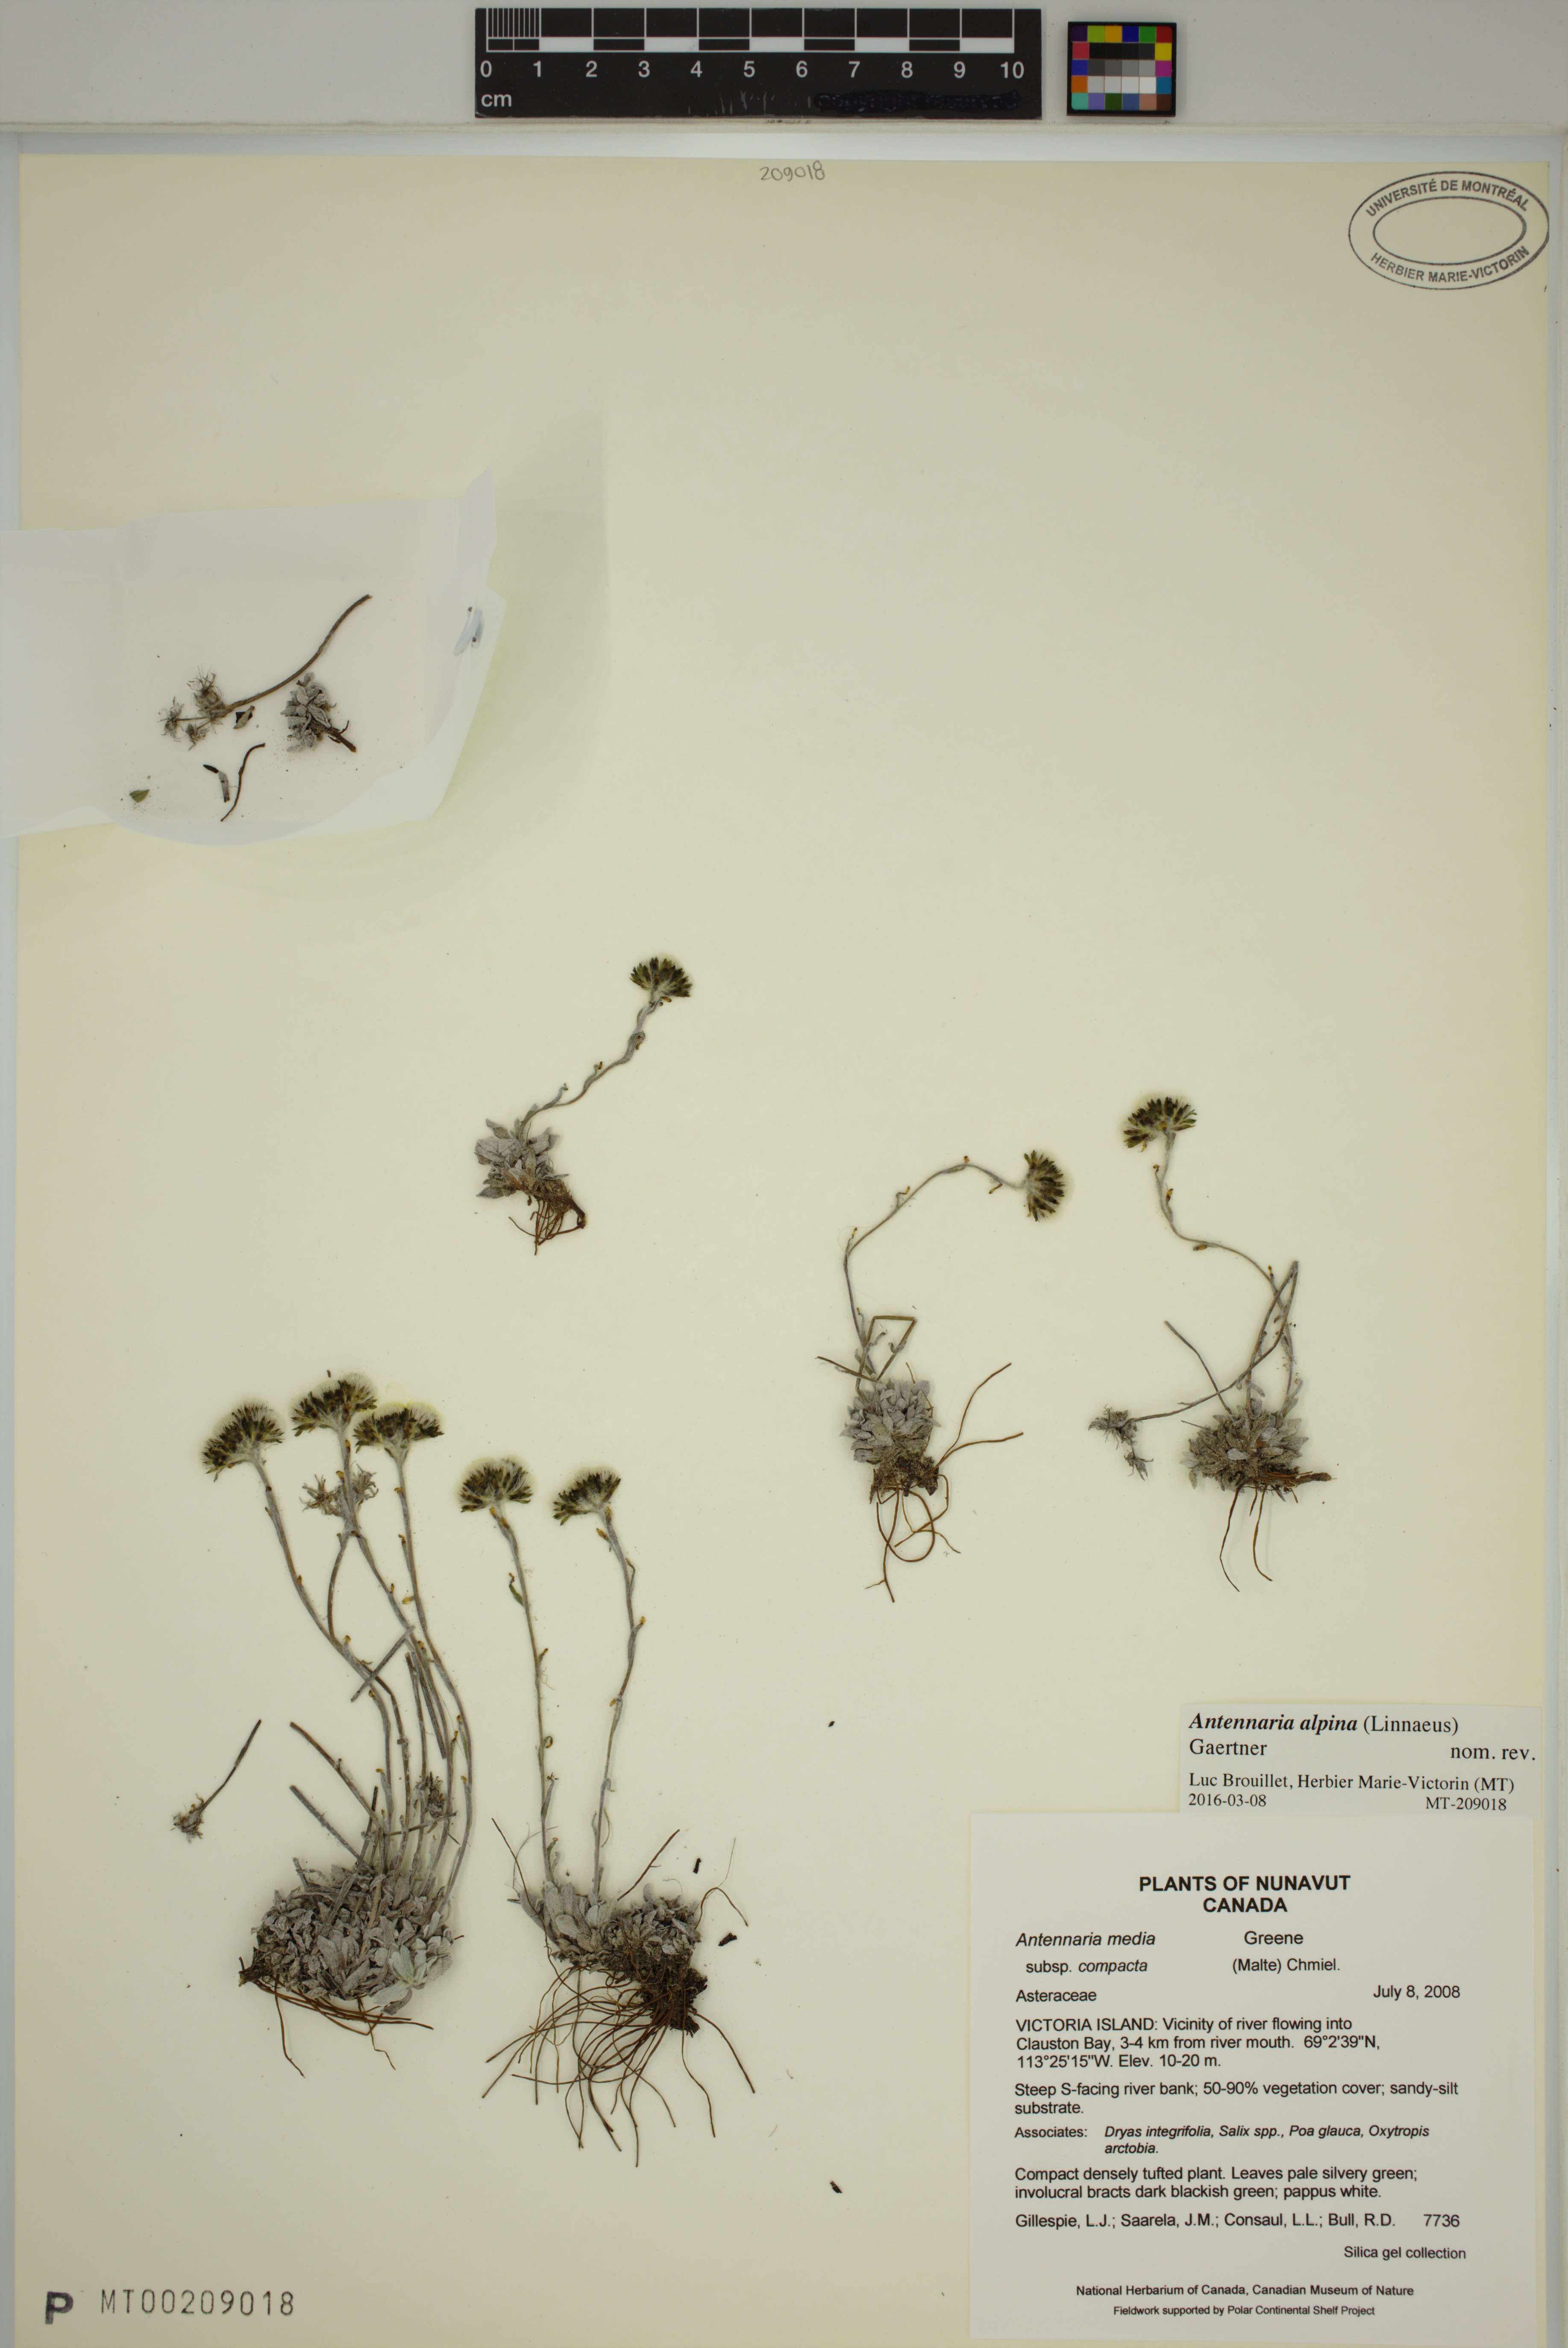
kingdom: Plantae
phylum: Tracheophyta
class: Magnoliopsida
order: Asterales
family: Asteraceae
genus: Antennaria
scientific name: Antennaria alpina
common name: Alpine pussytoes
